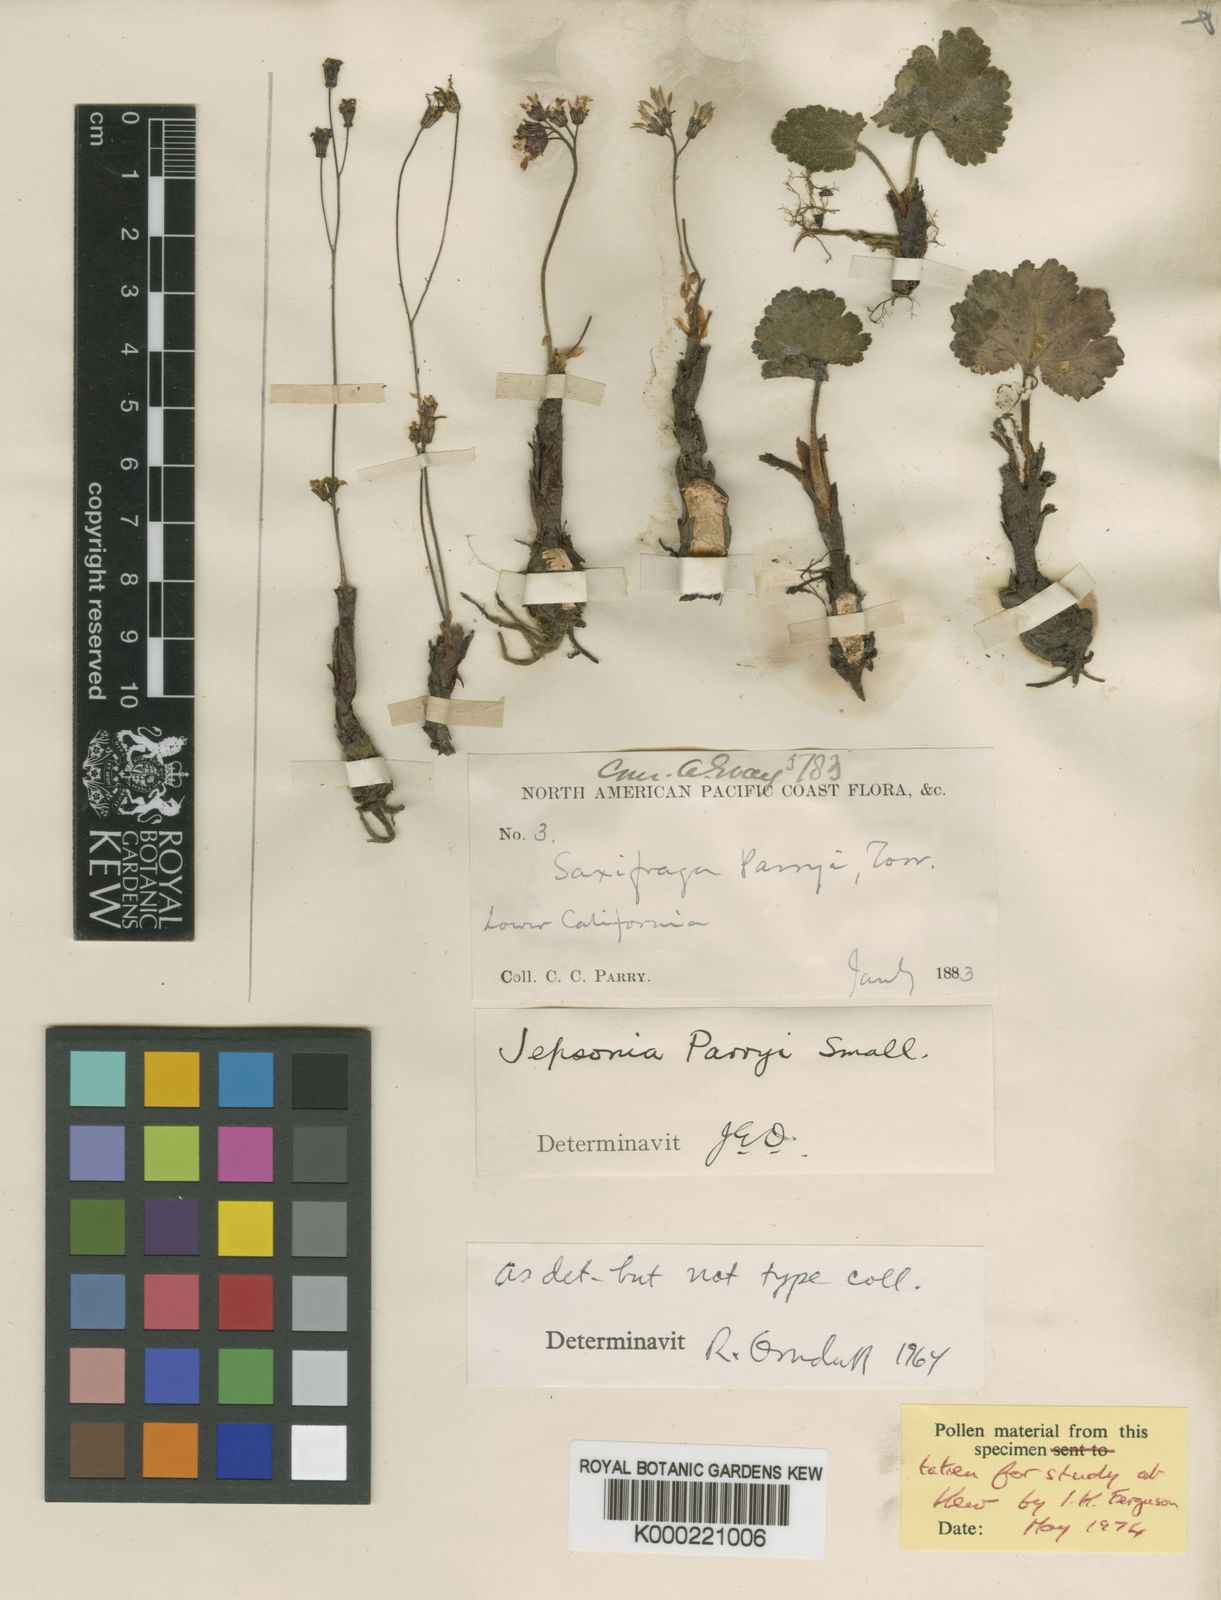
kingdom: Plantae
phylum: Tracheophyta
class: Magnoliopsida
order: Saxifragales
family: Saxifragaceae
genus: Jepsonia
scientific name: Jepsonia parryi
